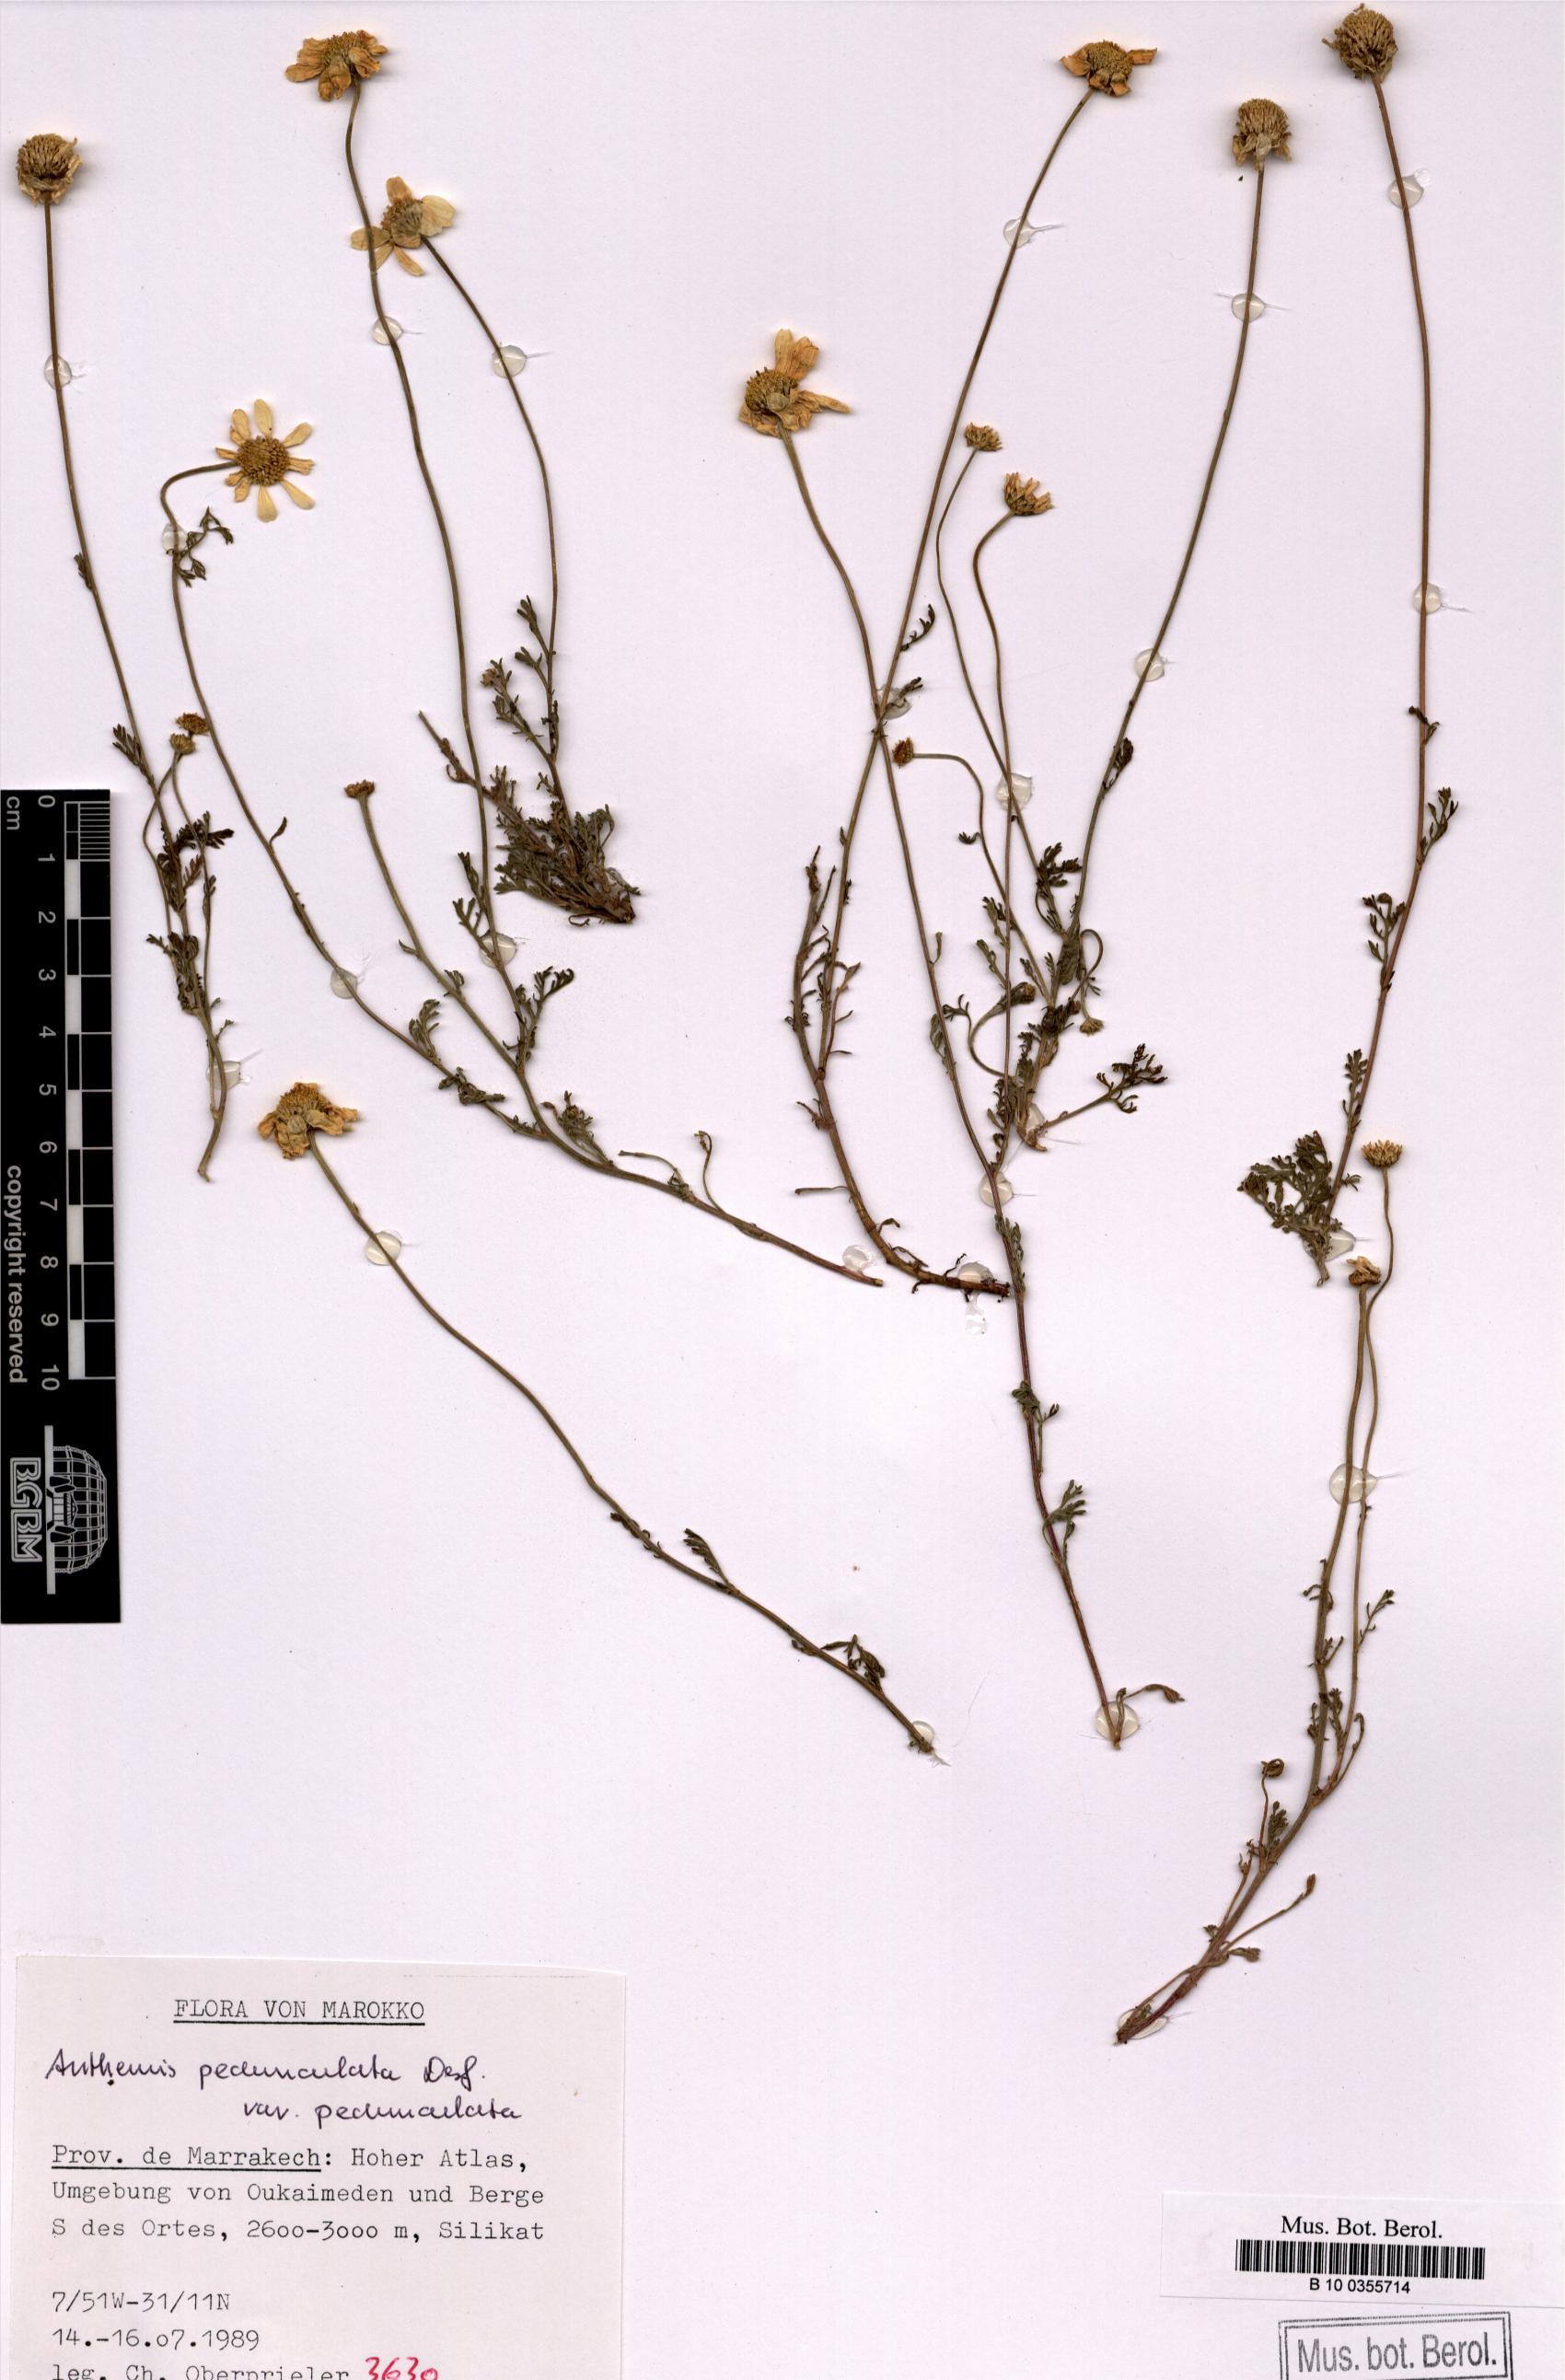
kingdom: Plantae
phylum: Tracheophyta
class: Magnoliopsida
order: Asterales
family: Asteraceae
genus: Anthemis
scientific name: Anthemis pedunculata
